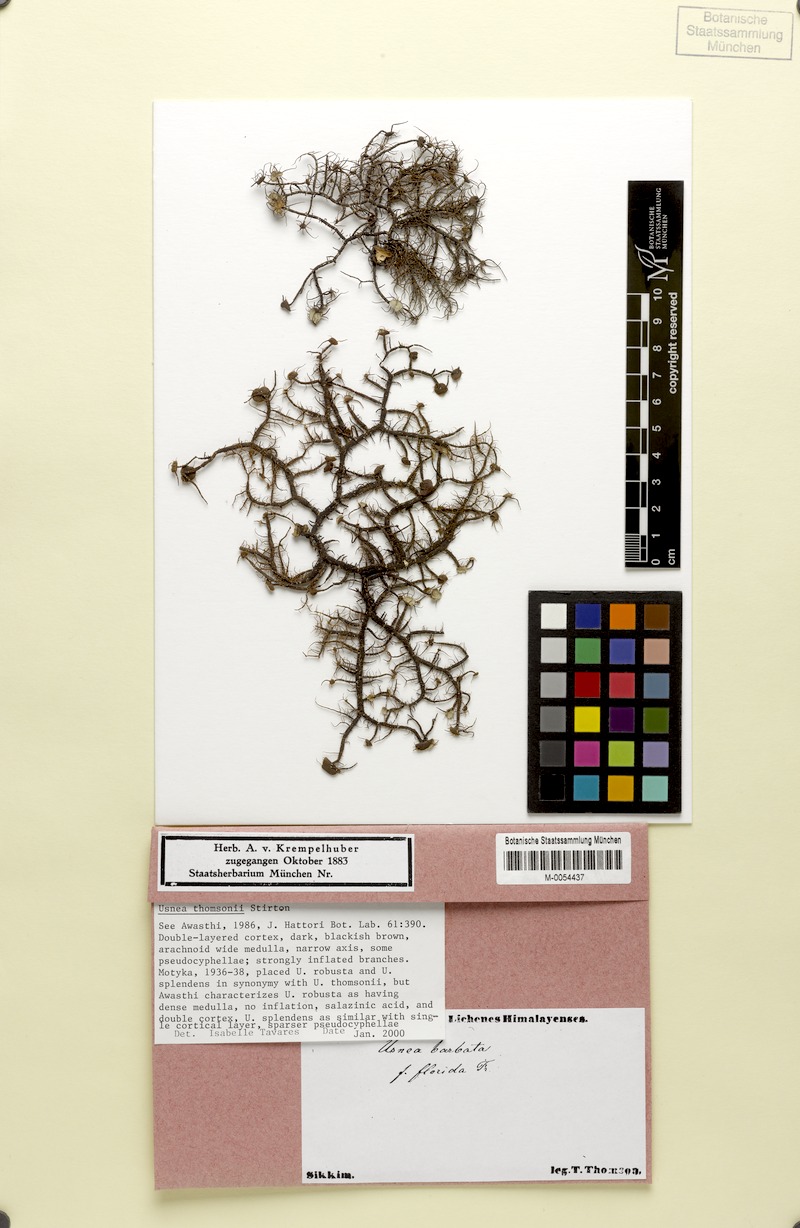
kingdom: Fungi
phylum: Ascomycota
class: Lecanoromycetes
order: Lecanorales
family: Parmeliaceae
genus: Usnea
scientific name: Usnea
